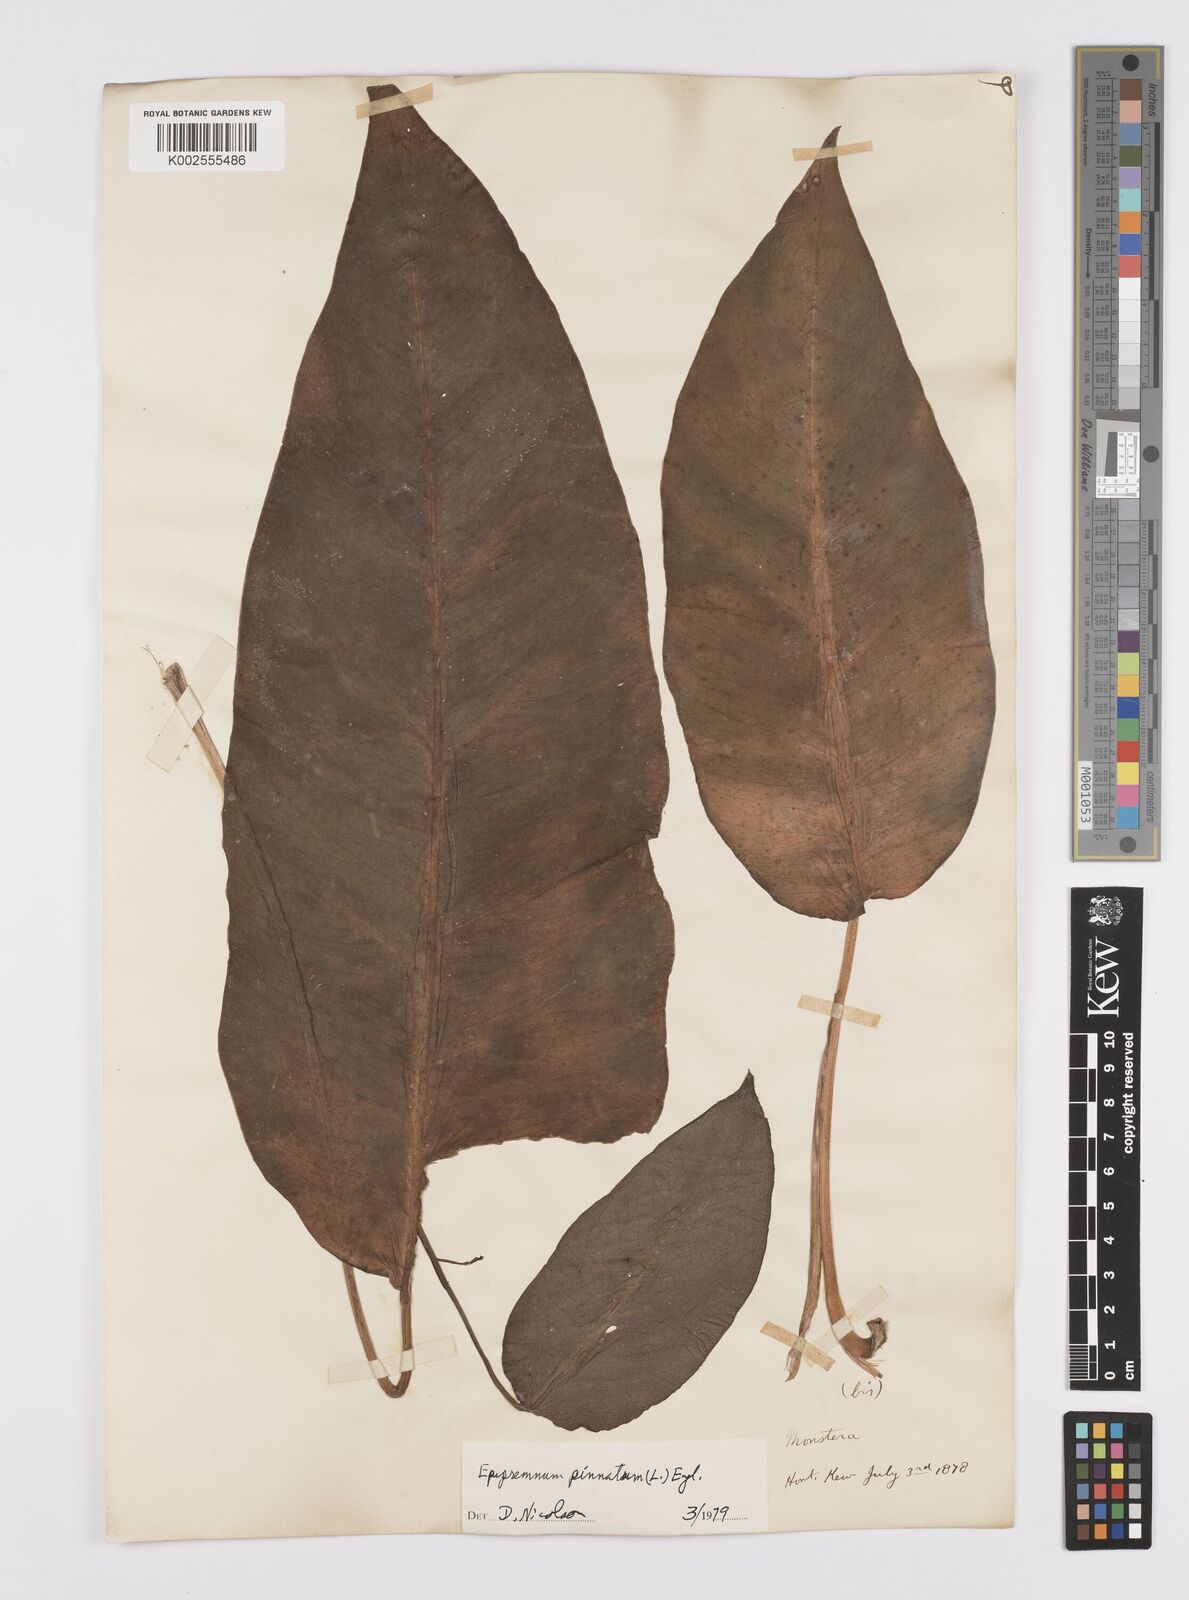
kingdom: Plantae
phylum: Tracheophyta
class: Liliopsida
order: Alismatales
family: Araceae
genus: Epipremnum
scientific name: Epipremnum pinnatum
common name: Centipede tongavine
